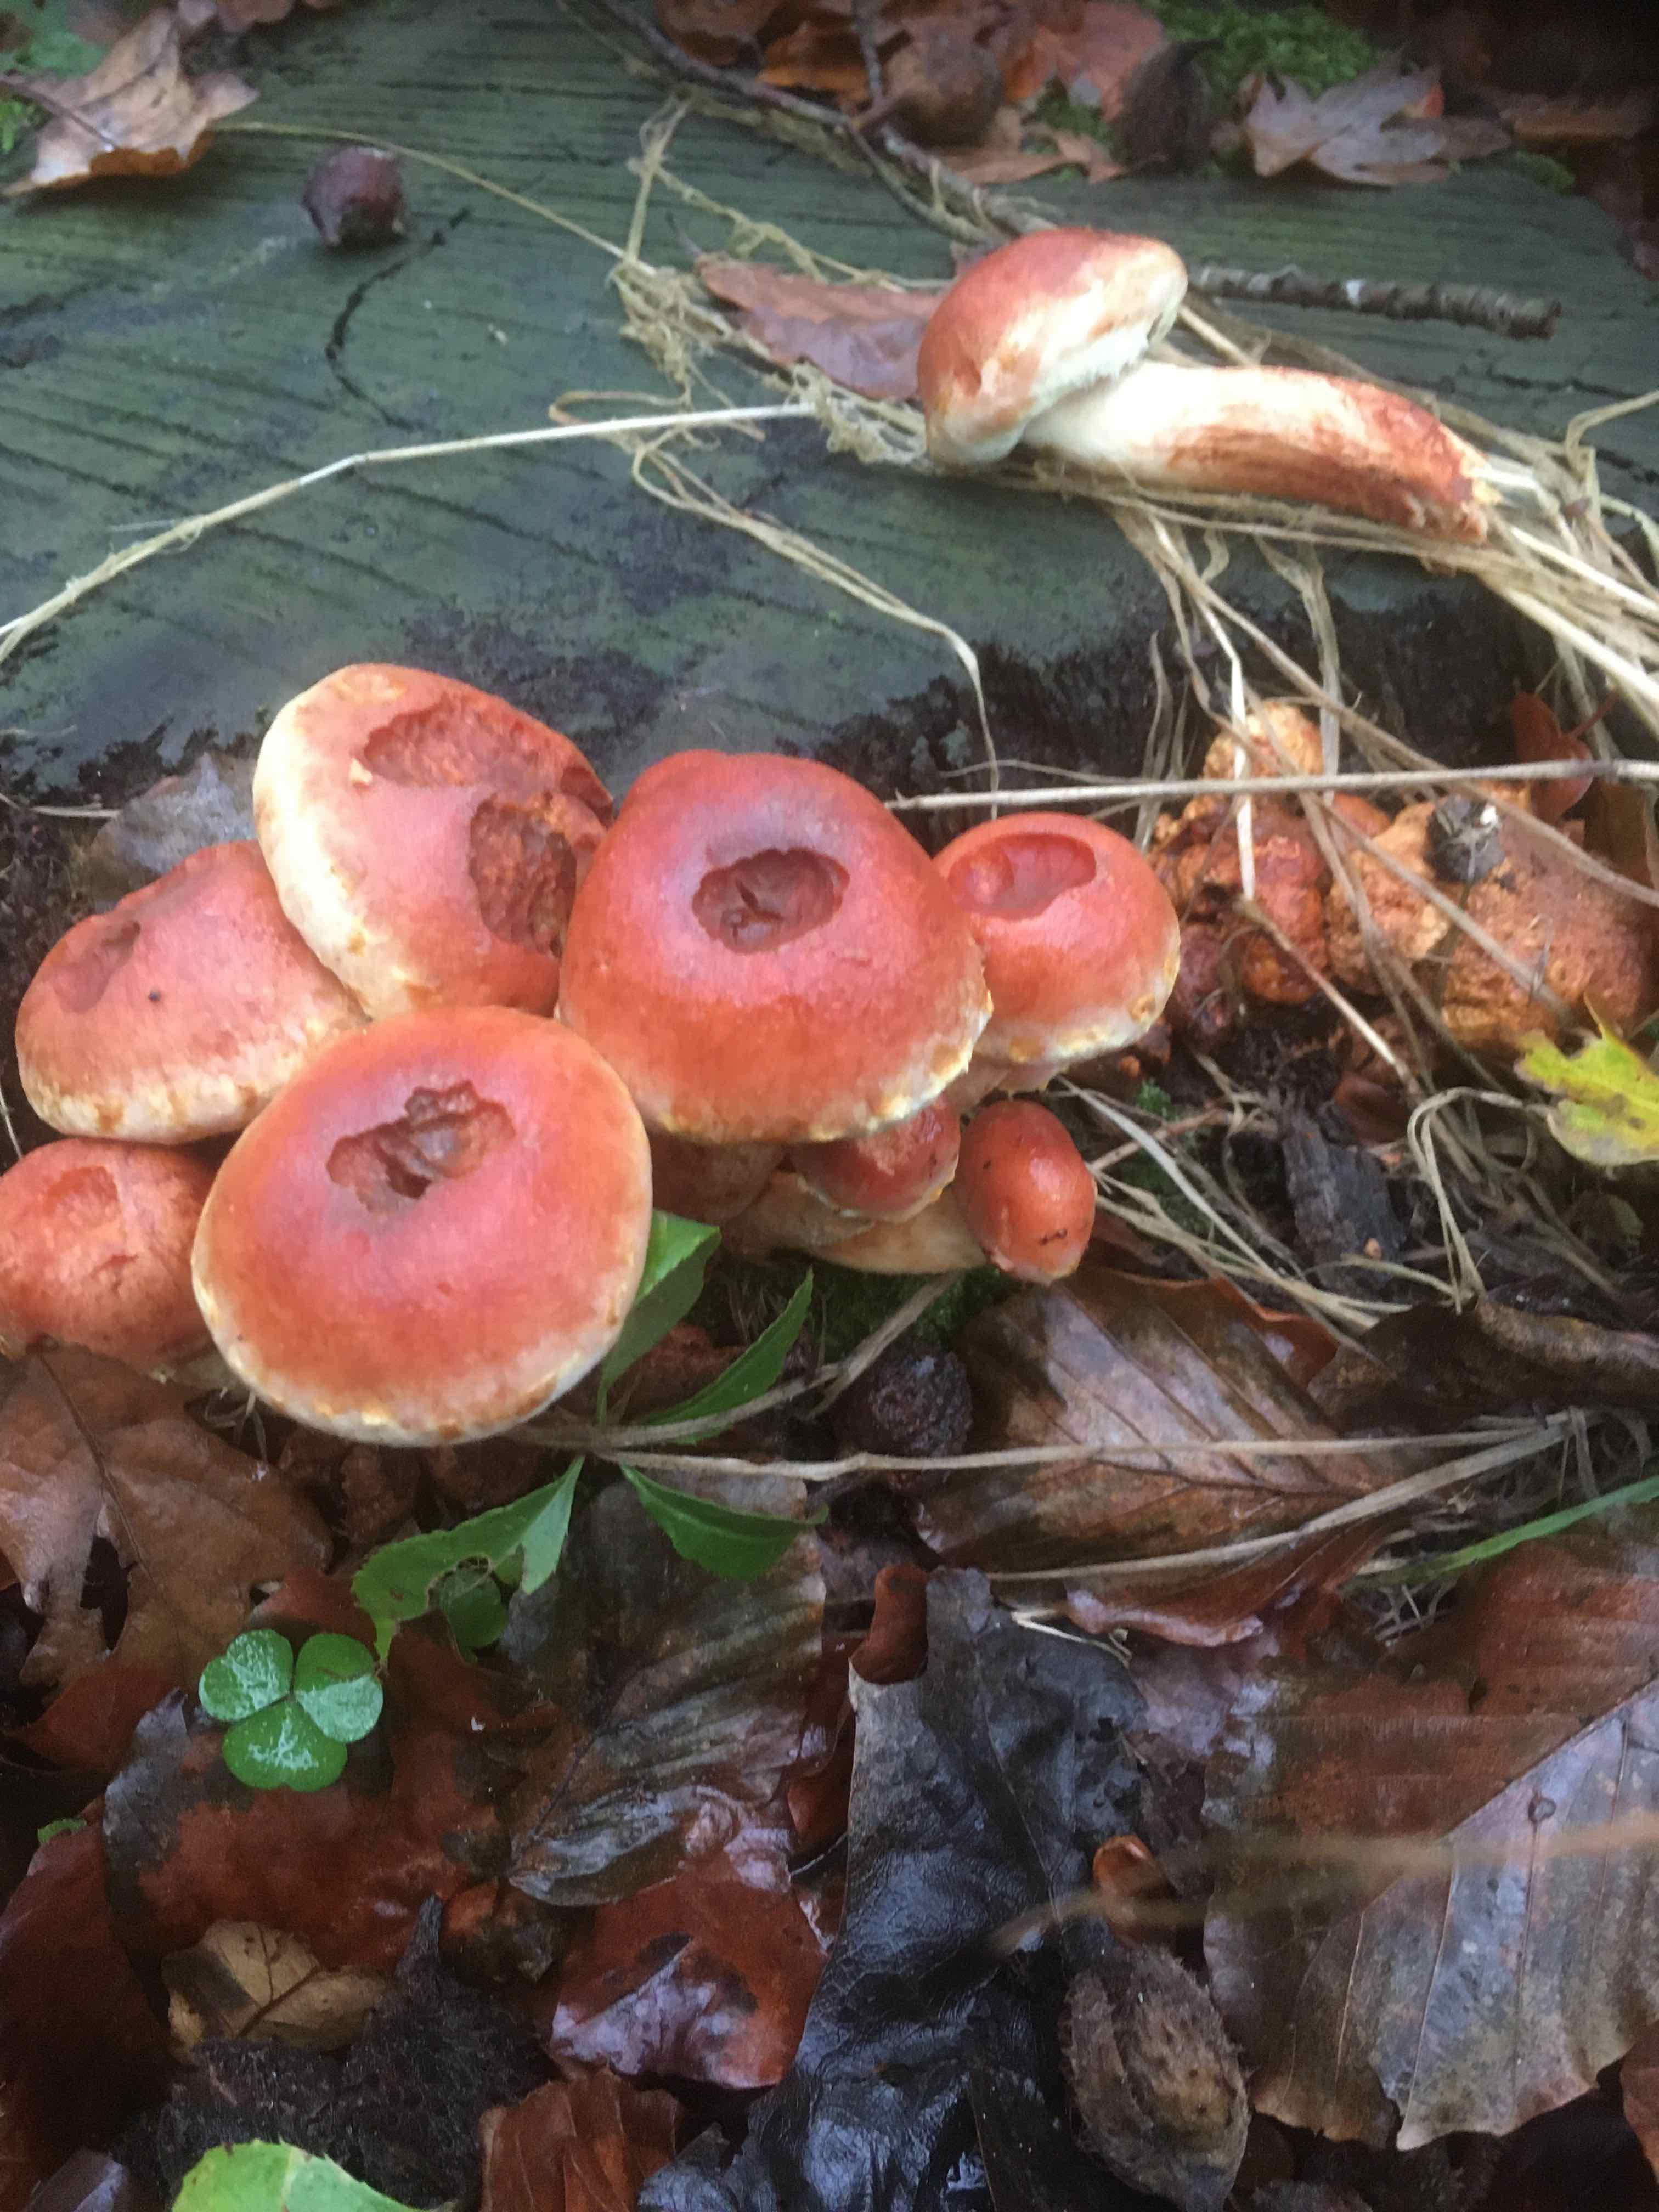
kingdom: Fungi
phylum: Basidiomycota
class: Agaricomycetes
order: Agaricales
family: Strophariaceae
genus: Hypholoma
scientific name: Hypholoma lateritium
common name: teglrød svovlhat
